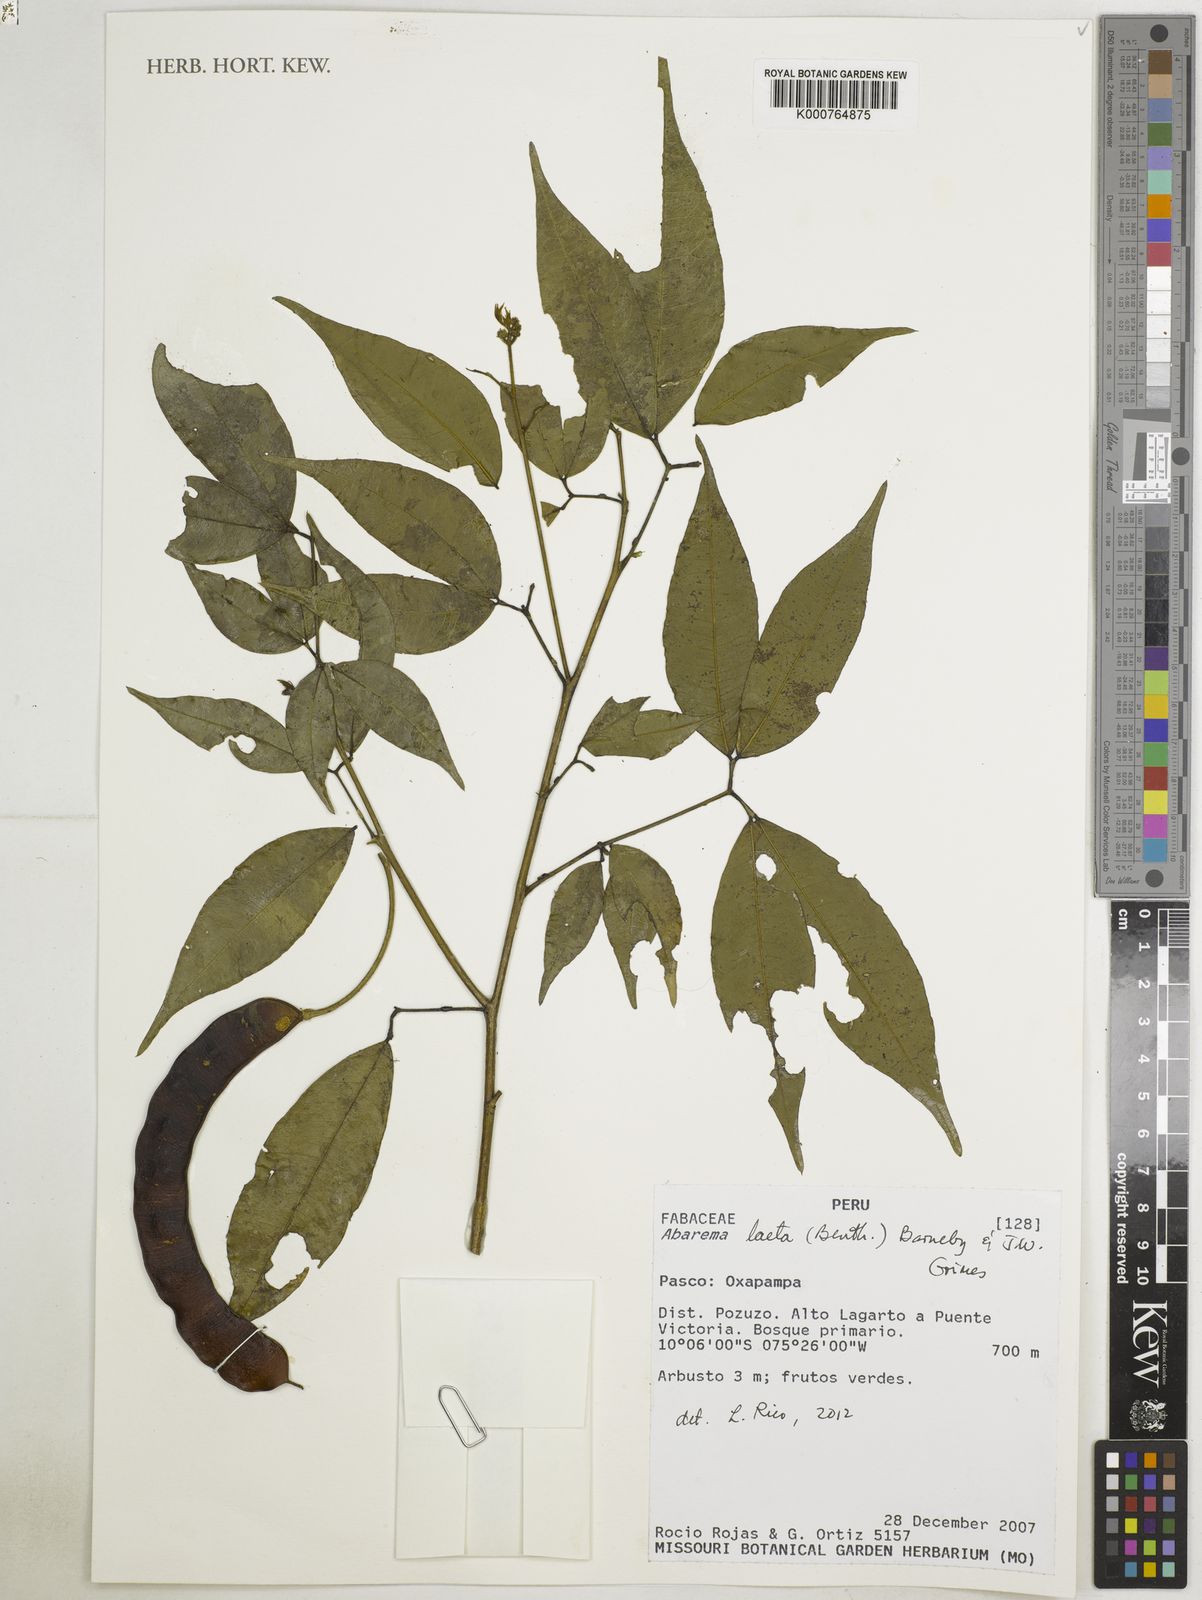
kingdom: Plantae
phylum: Tracheophyta
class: Magnoliopsida
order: Fabales
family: Fabaceae
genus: Jupunba
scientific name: Jupunba laeta
